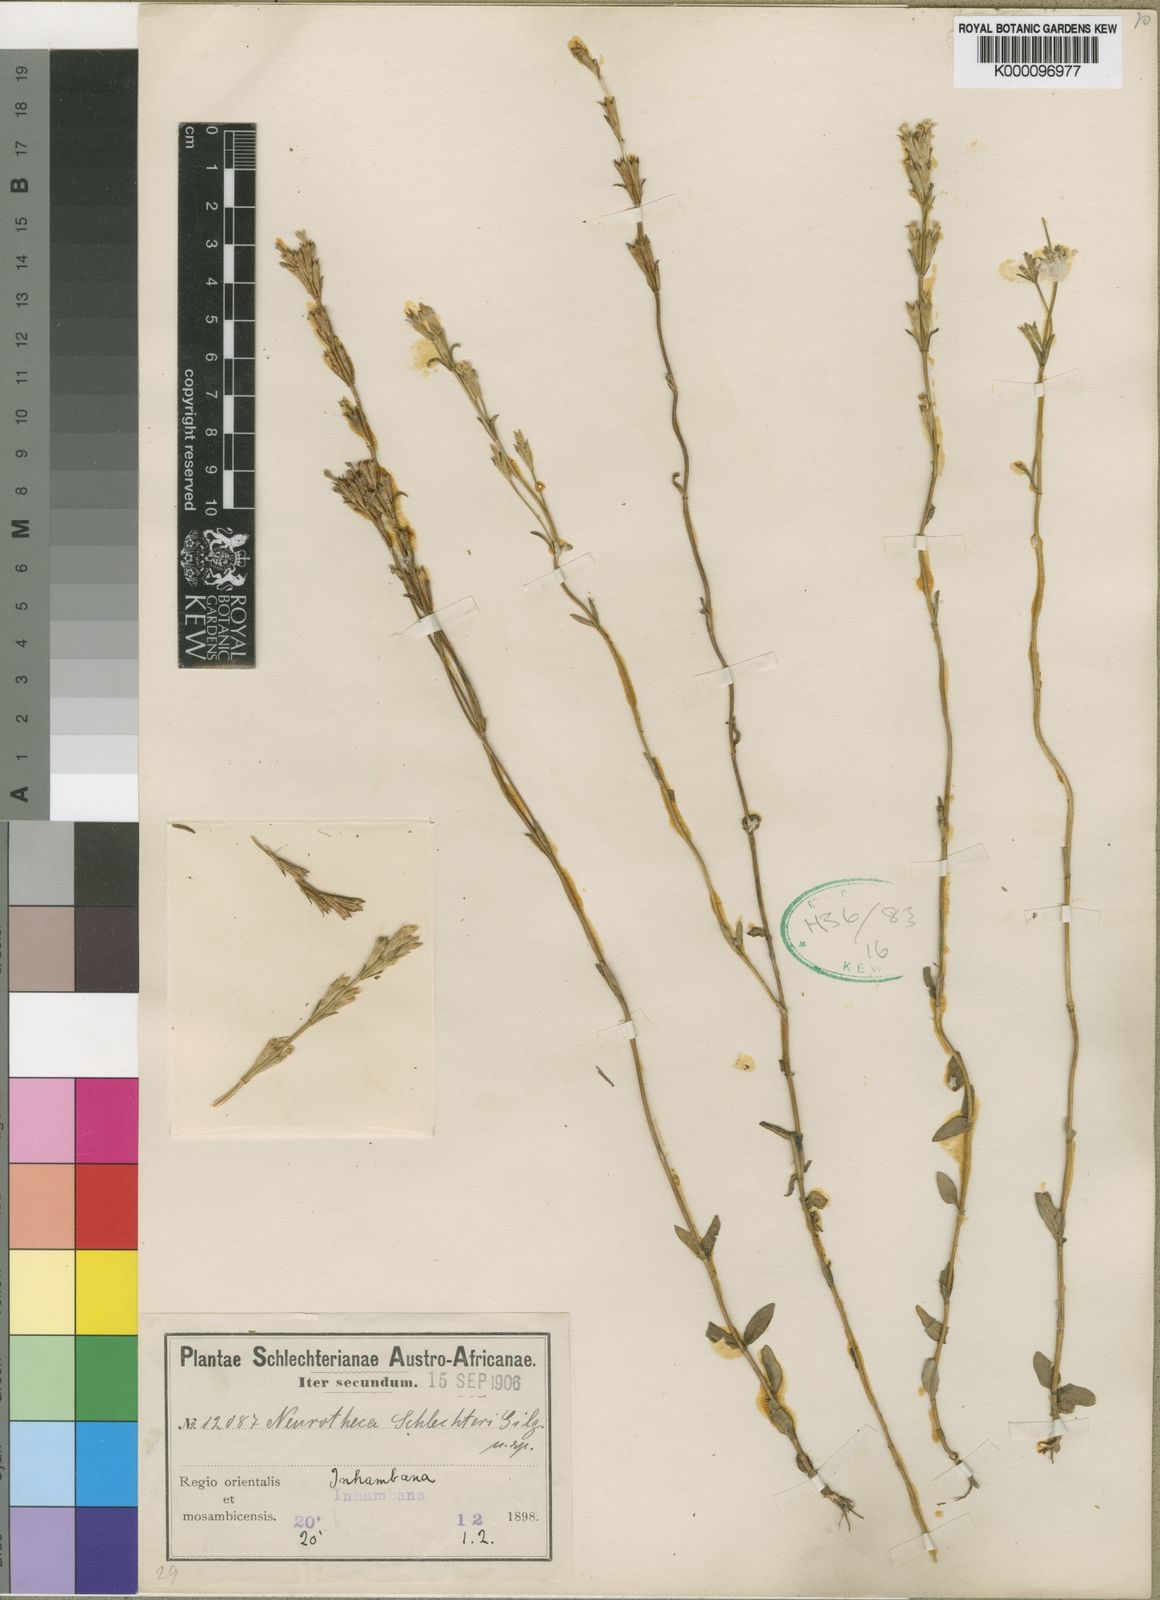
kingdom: Plantae
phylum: Tracheophyta
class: Magnoliopsida
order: Gentianales
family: Gentianaceae
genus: Neurotheca
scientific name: Neurotheca congolana
